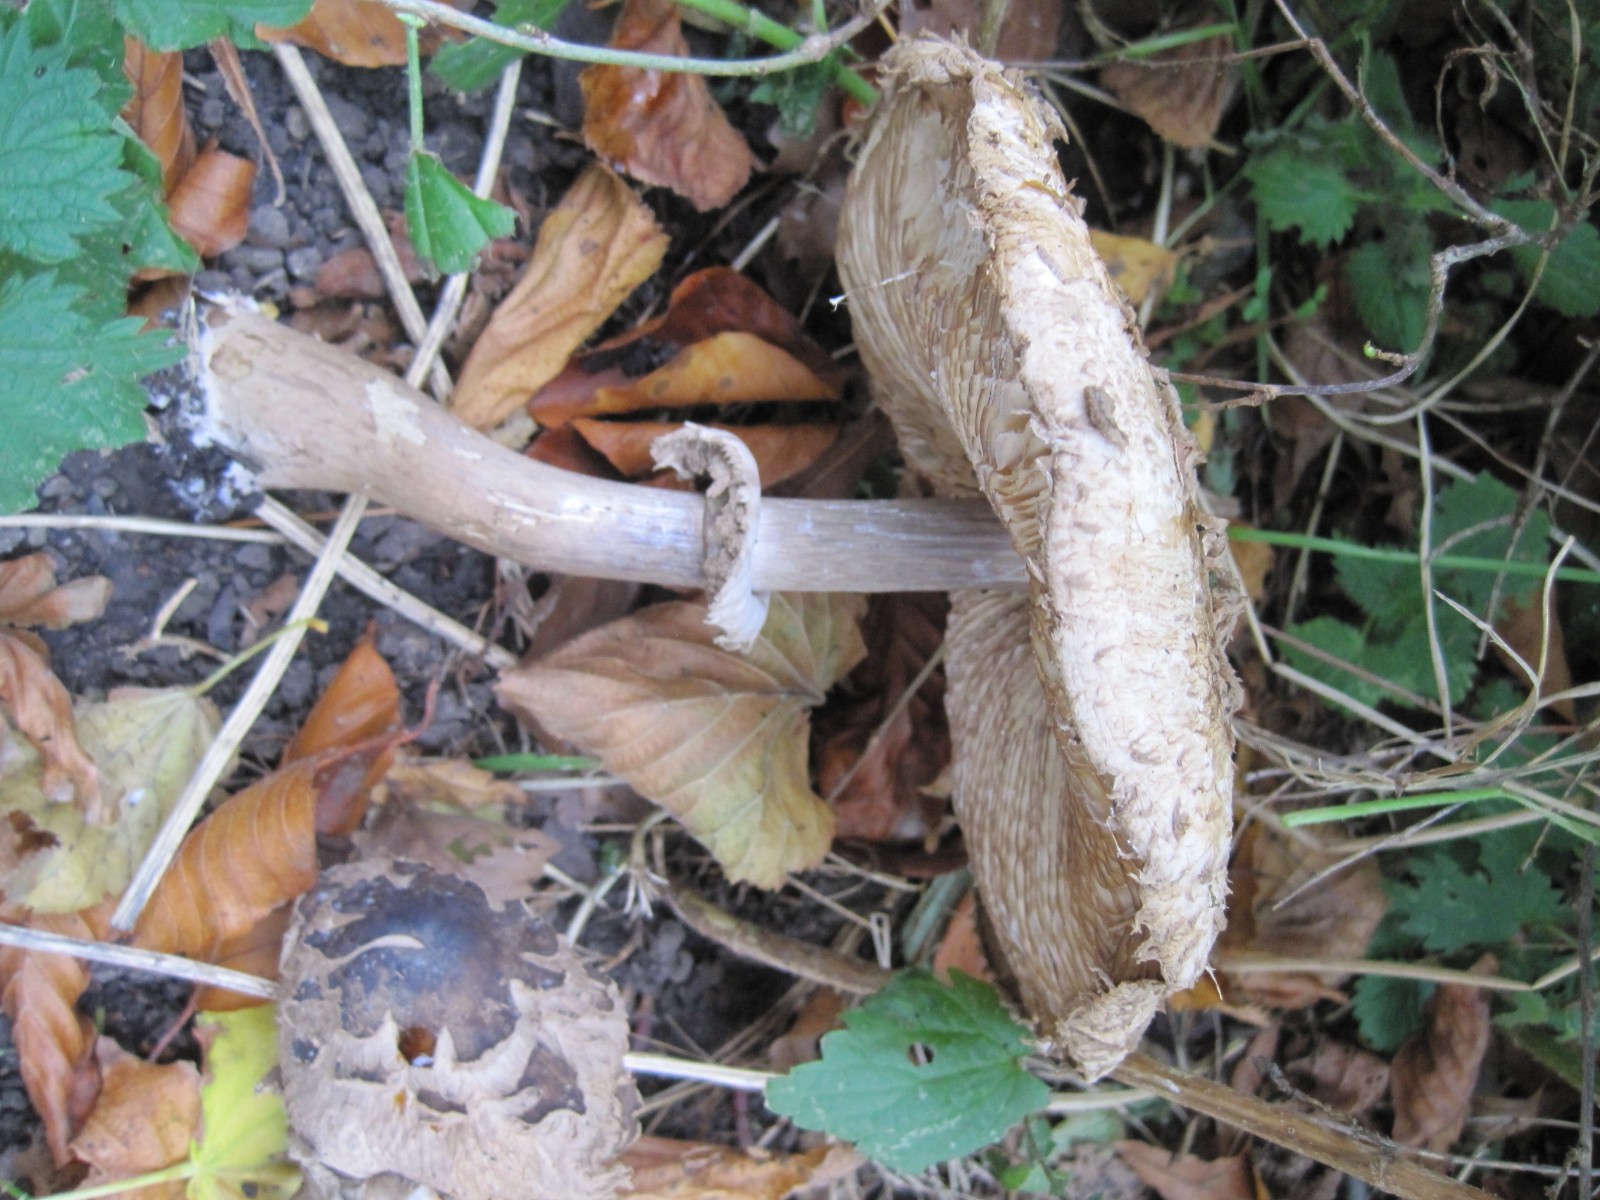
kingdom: Fungi
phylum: Basidiomycota
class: Agaricomycetes
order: Agaricales
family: Agaricaceae
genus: Chlorophyllum
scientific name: Chlorophyllum brunneum
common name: giftig rabarberhat
